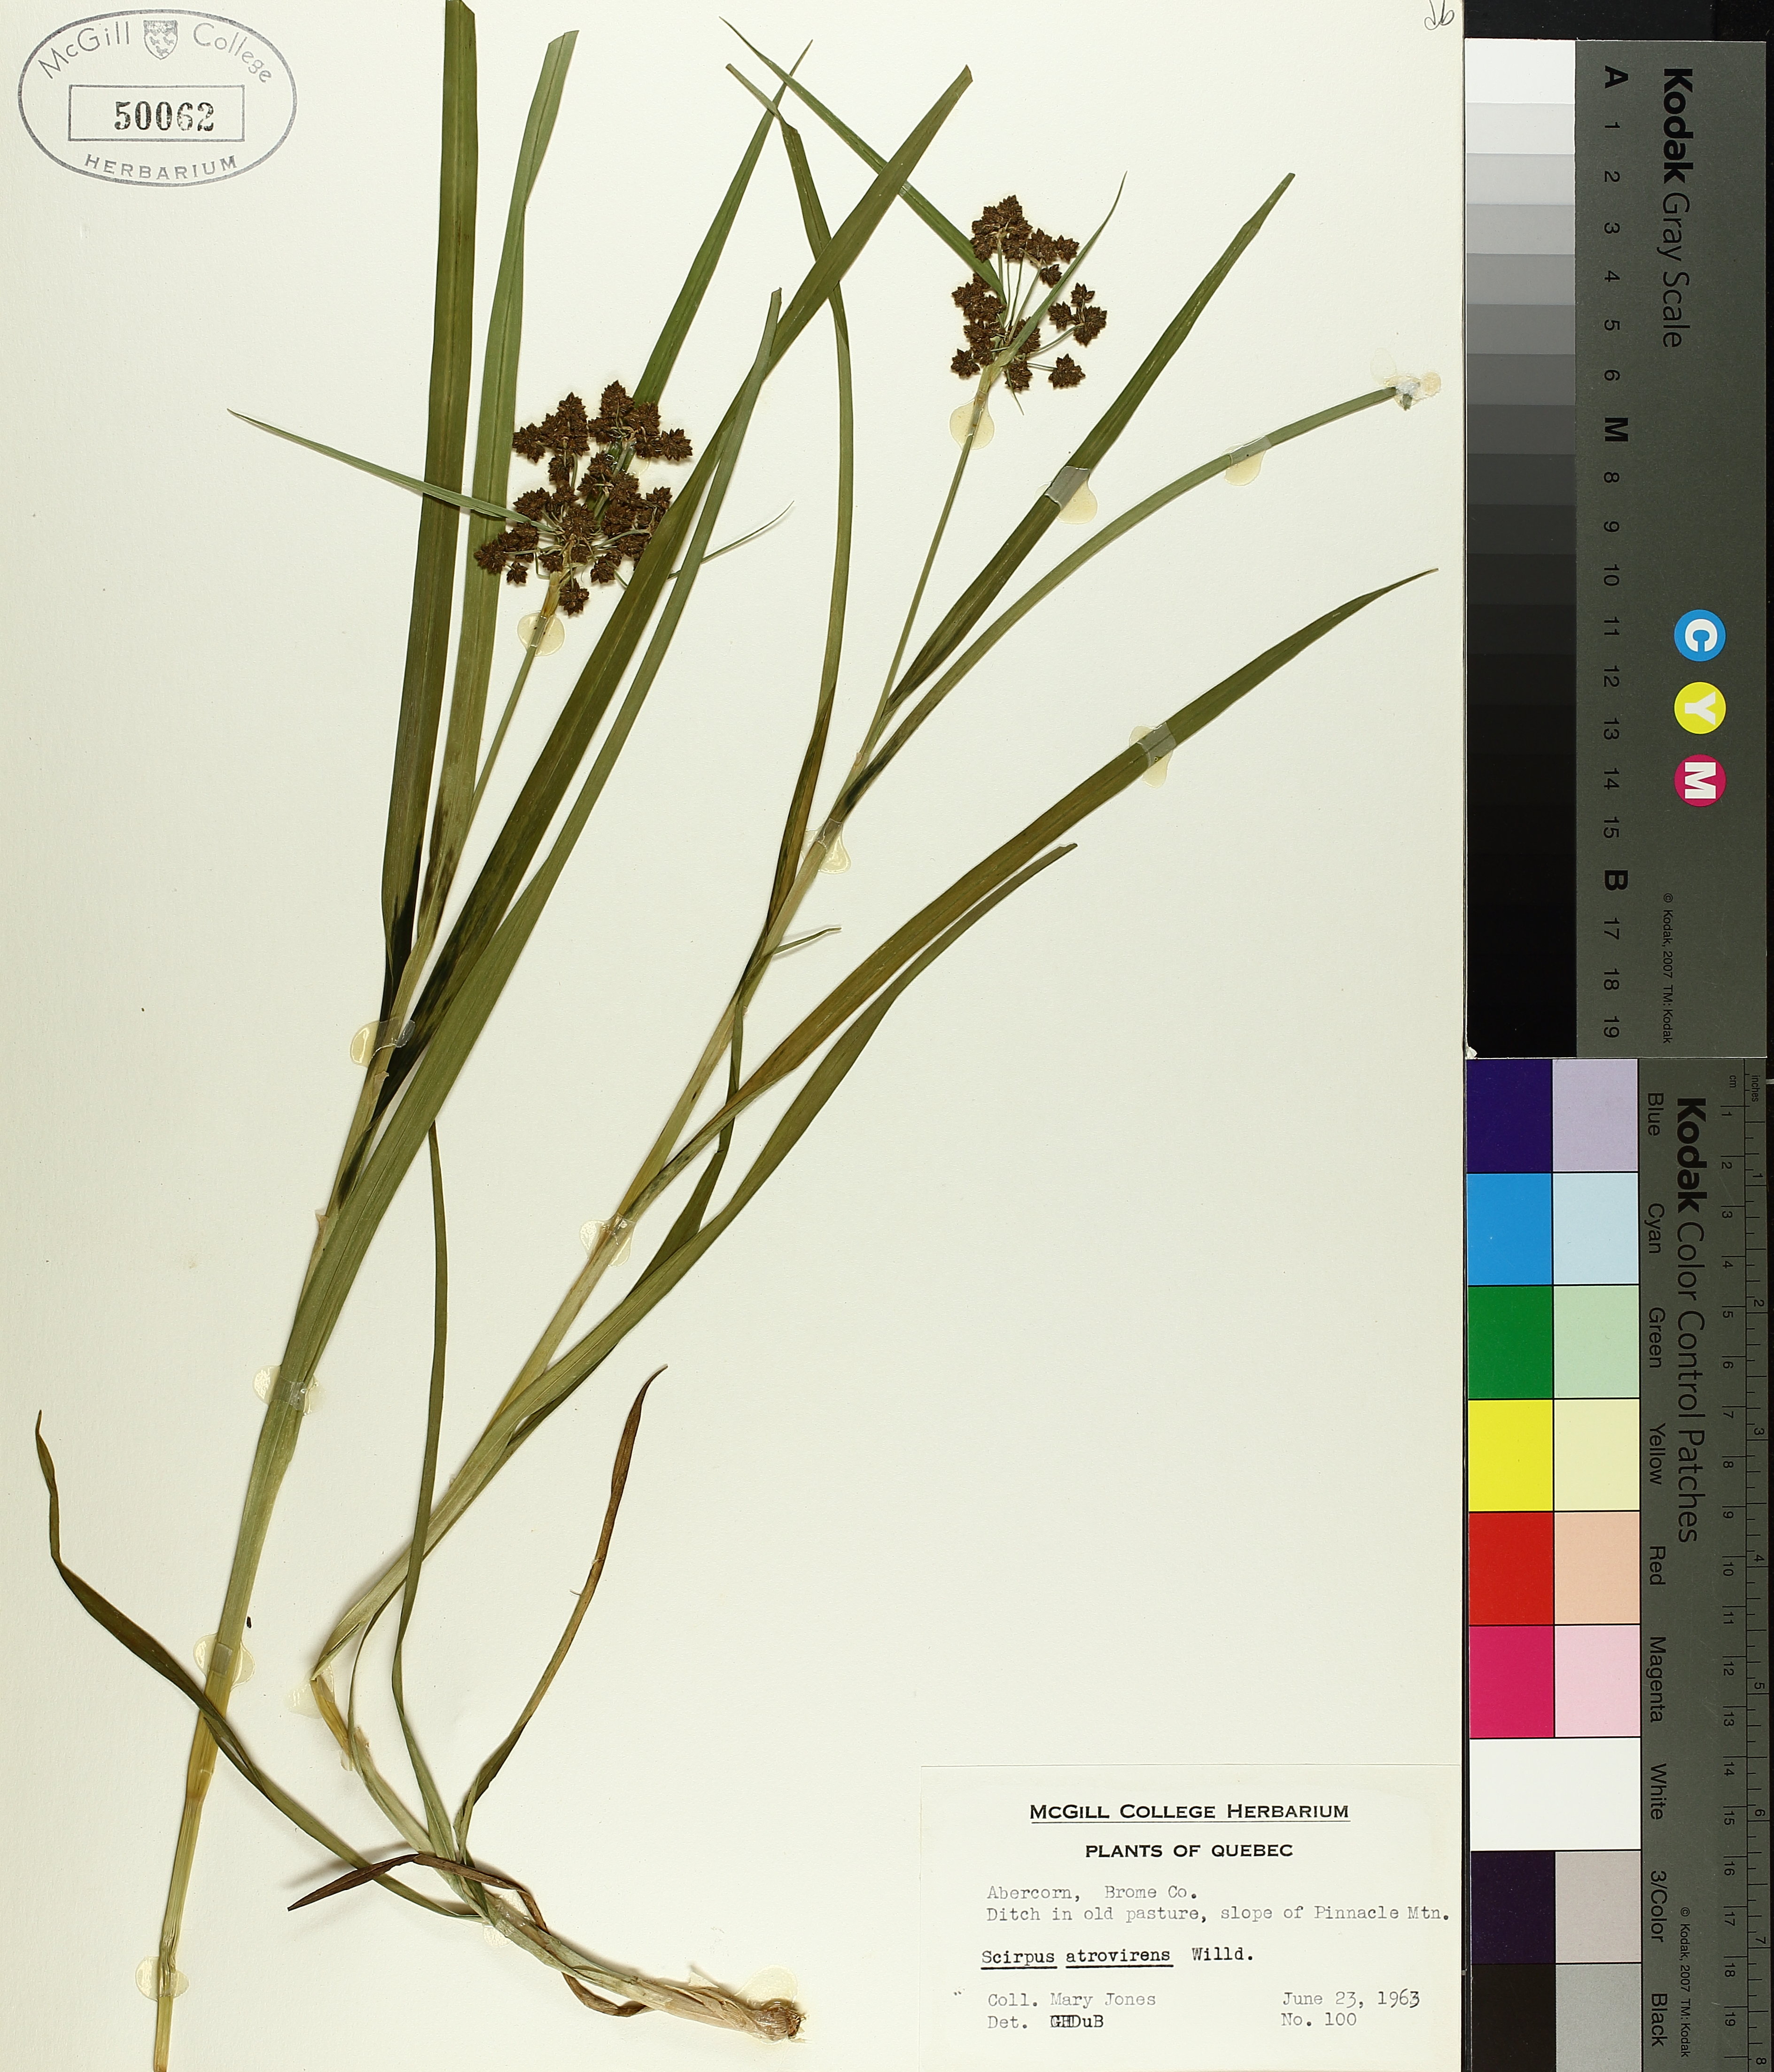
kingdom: Plantae
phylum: Tracheophyta
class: Liliopsida
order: Poales
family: Cyperaceae
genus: Scirpus
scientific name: Scirpus atrovirens
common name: Black bulrush
